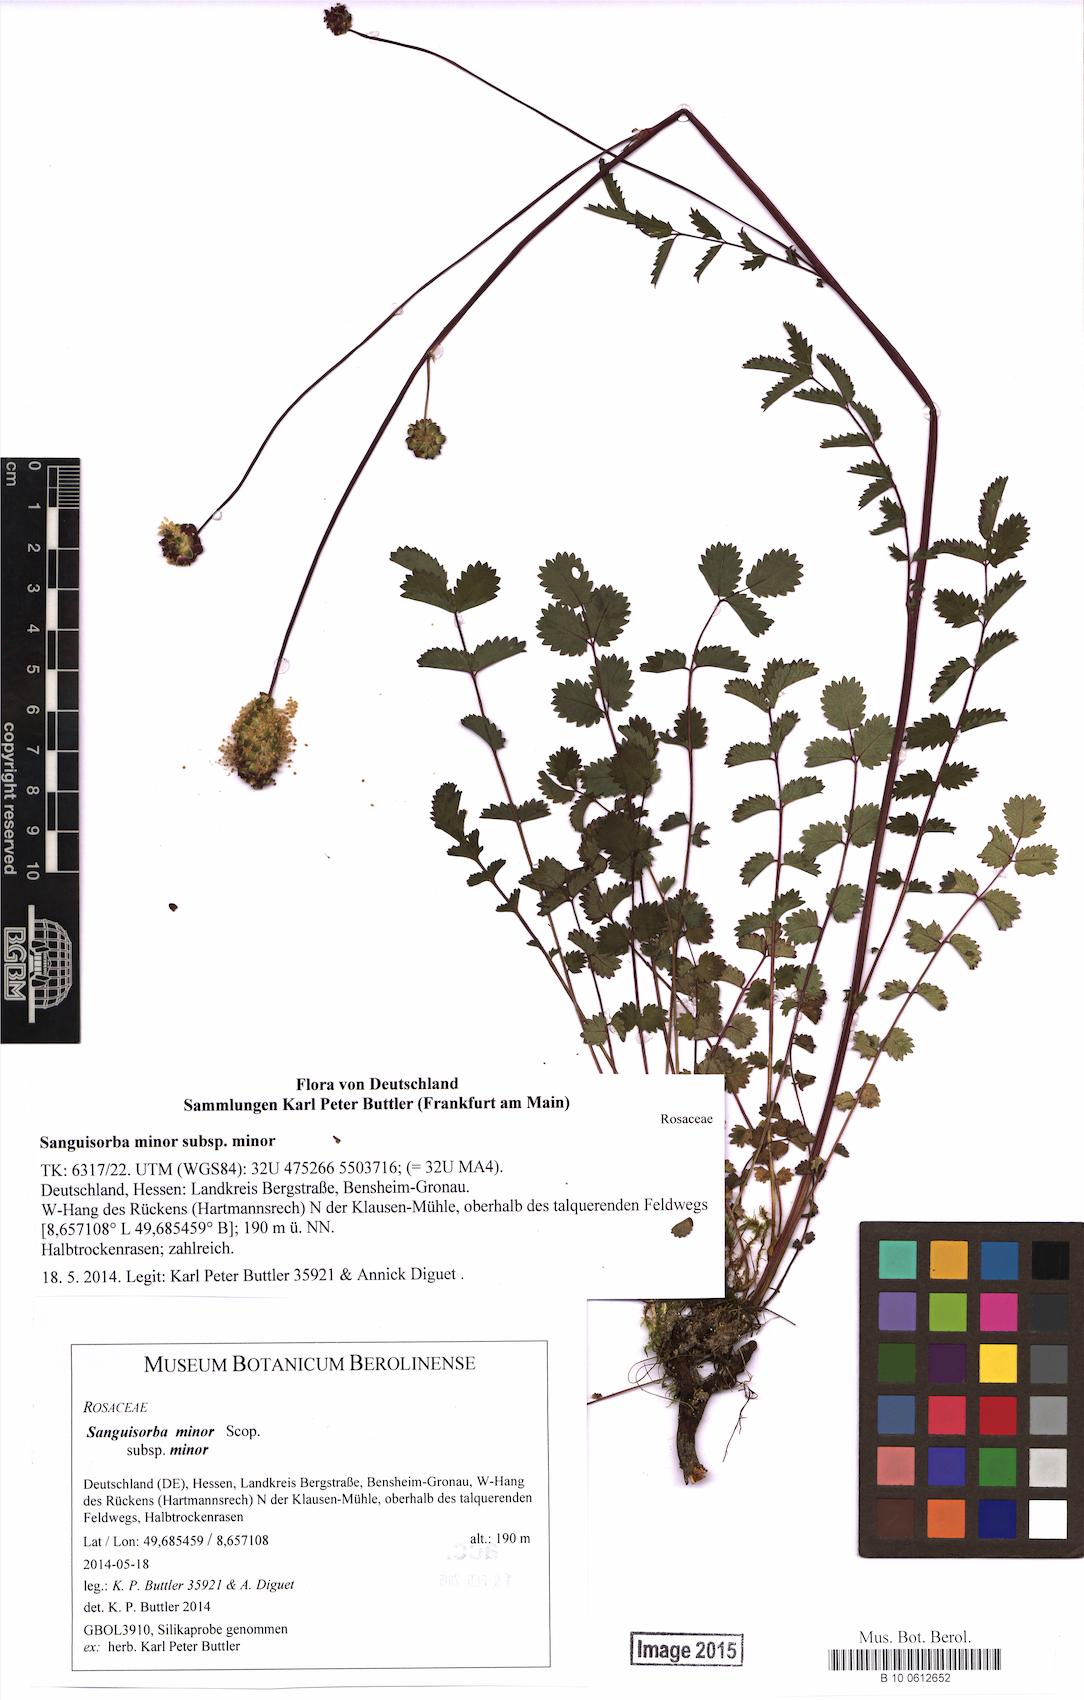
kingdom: Plantae
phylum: Tracheophyta
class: Magnoliopsida
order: Rosales
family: Rosaceae
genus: Poterium
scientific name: Poterium sanguisorba
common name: Salad burnet
